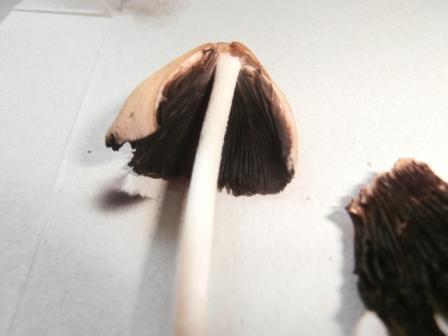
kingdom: Fungi
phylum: Basidiomycota
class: Agaricomycetes
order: Agaricales
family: Psathyrellaceae
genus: Coprinellus
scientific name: Coprinellus micaceus
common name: glimmer-blækhat
